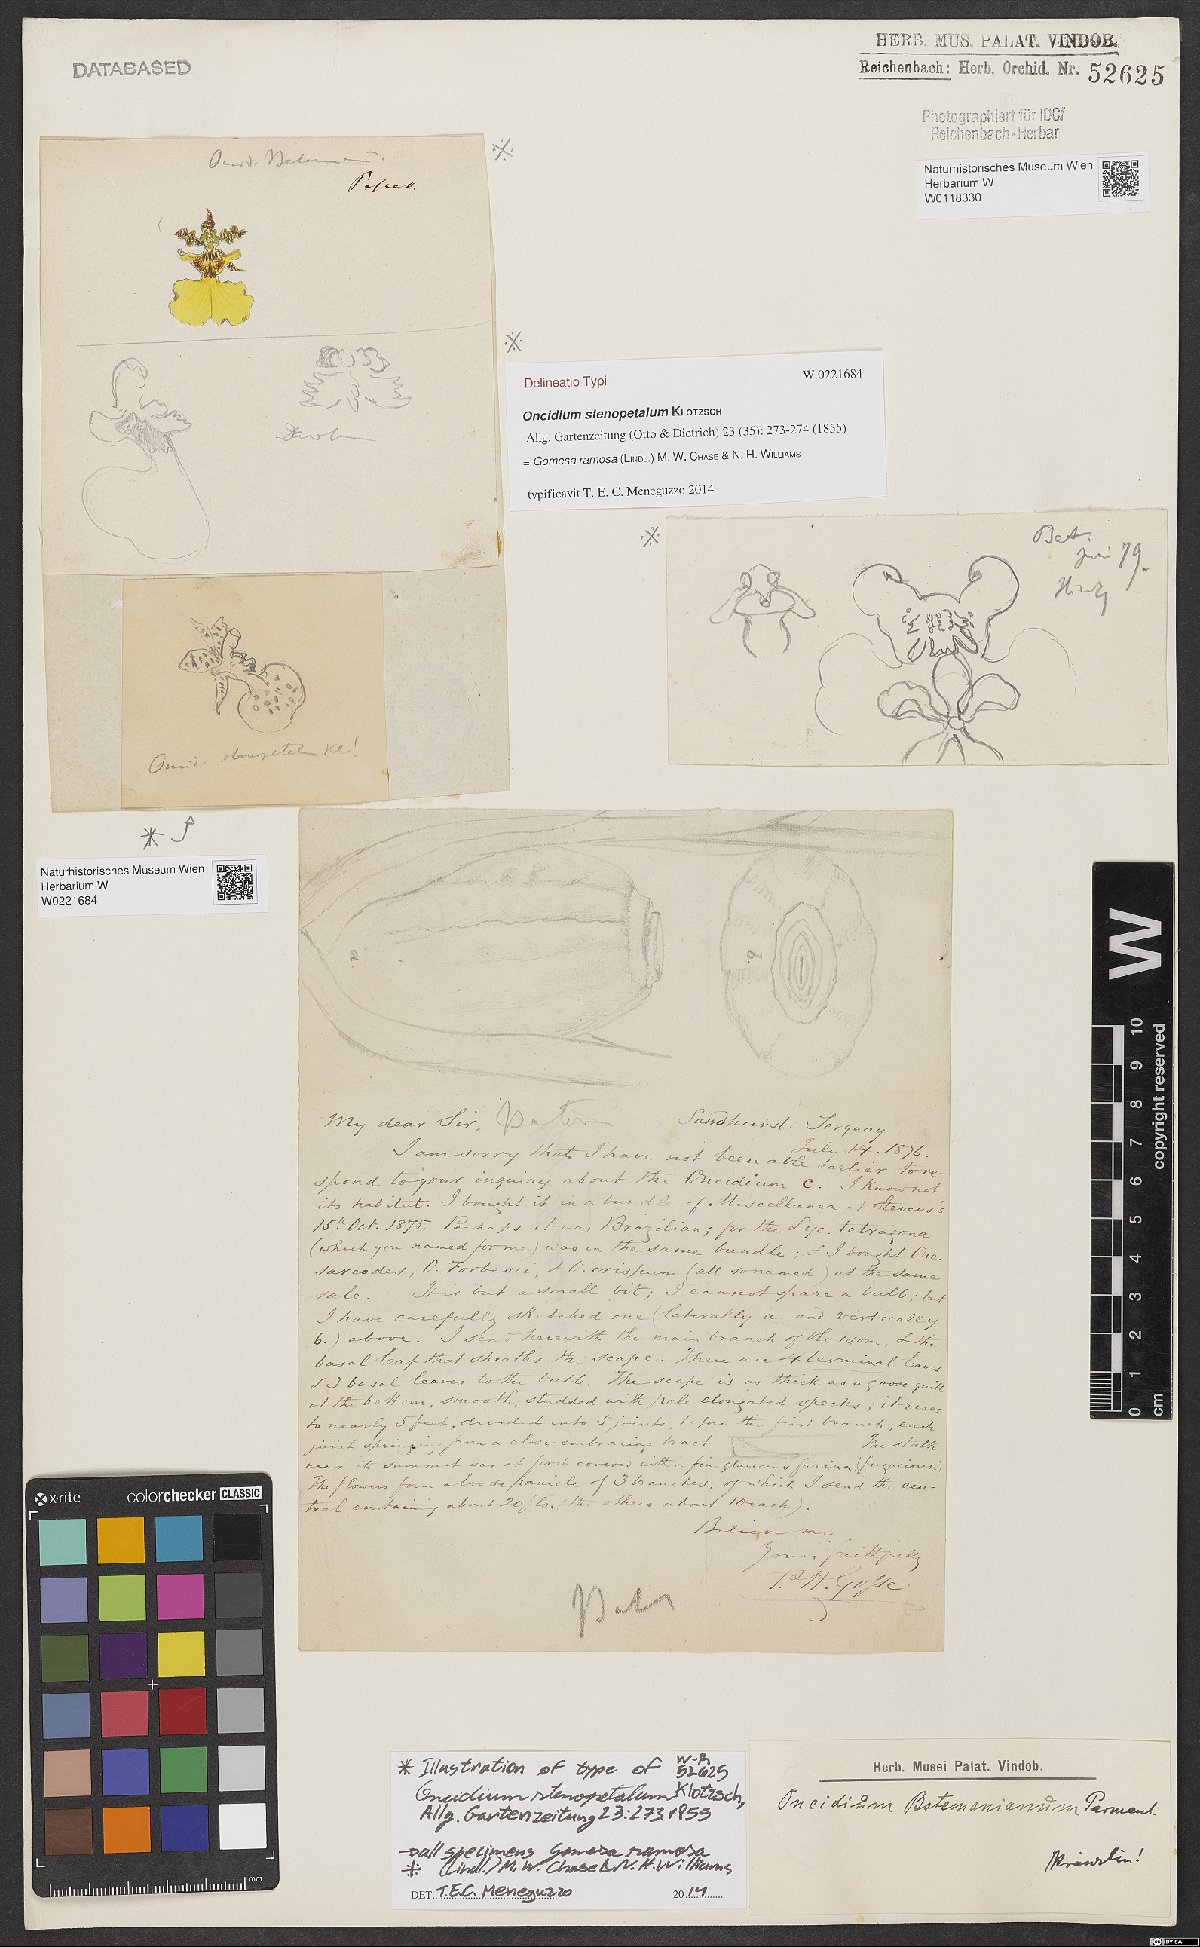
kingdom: Plantae
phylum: Tracheophyta
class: Liliopsida
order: Asparagales
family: Orchidaceae
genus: Gomesa
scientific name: Gomesa ramosa
